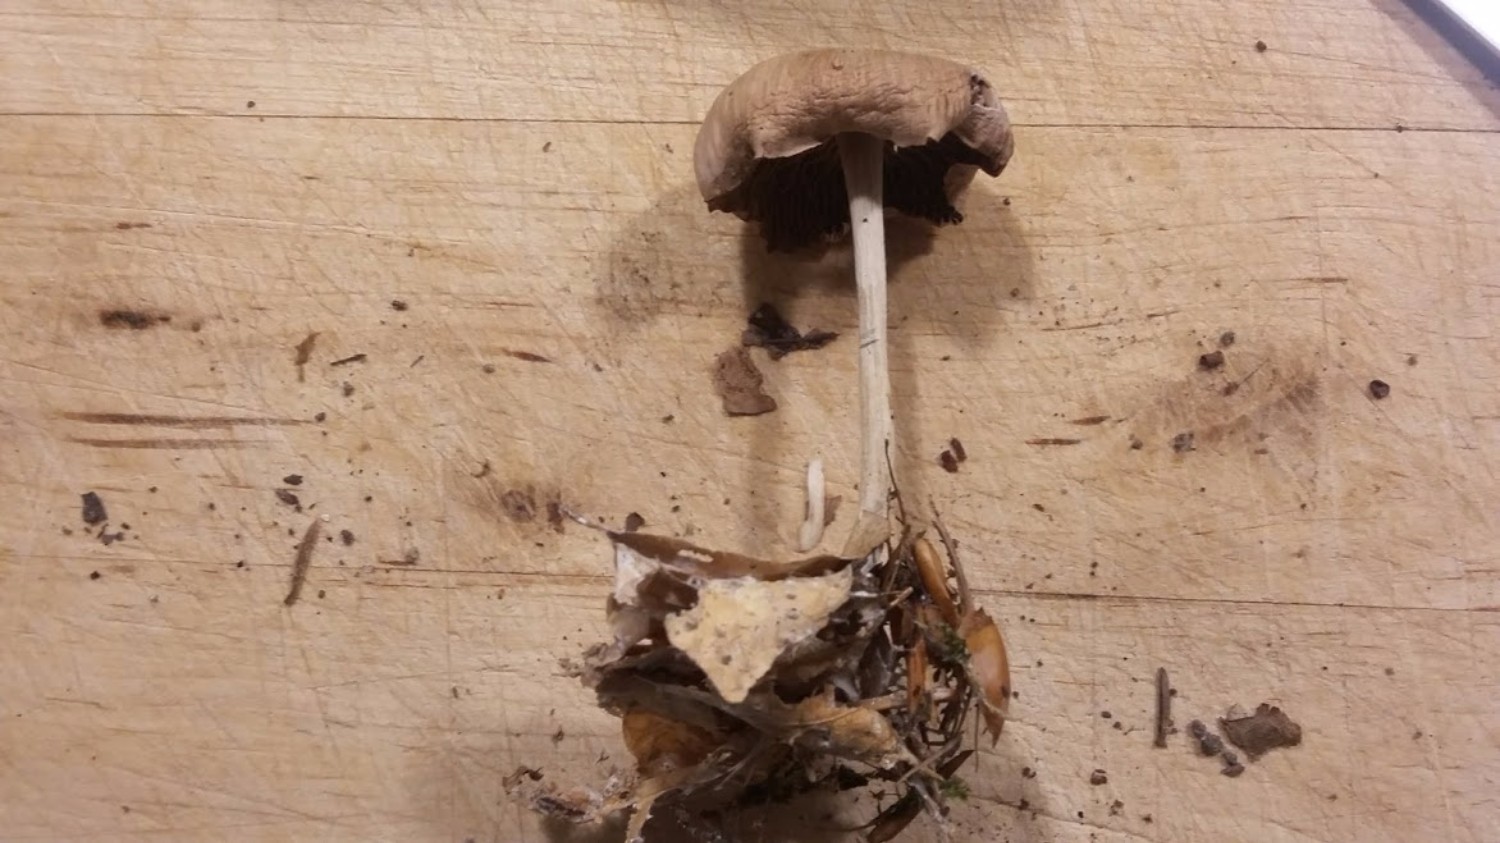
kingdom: Fungi
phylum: Basidiomycota
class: Agaricomycetes
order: Agaricales
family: Omphalotaceae
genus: Collybiopsis
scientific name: Collybiopsis peronata
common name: bestøvlet fladhat
